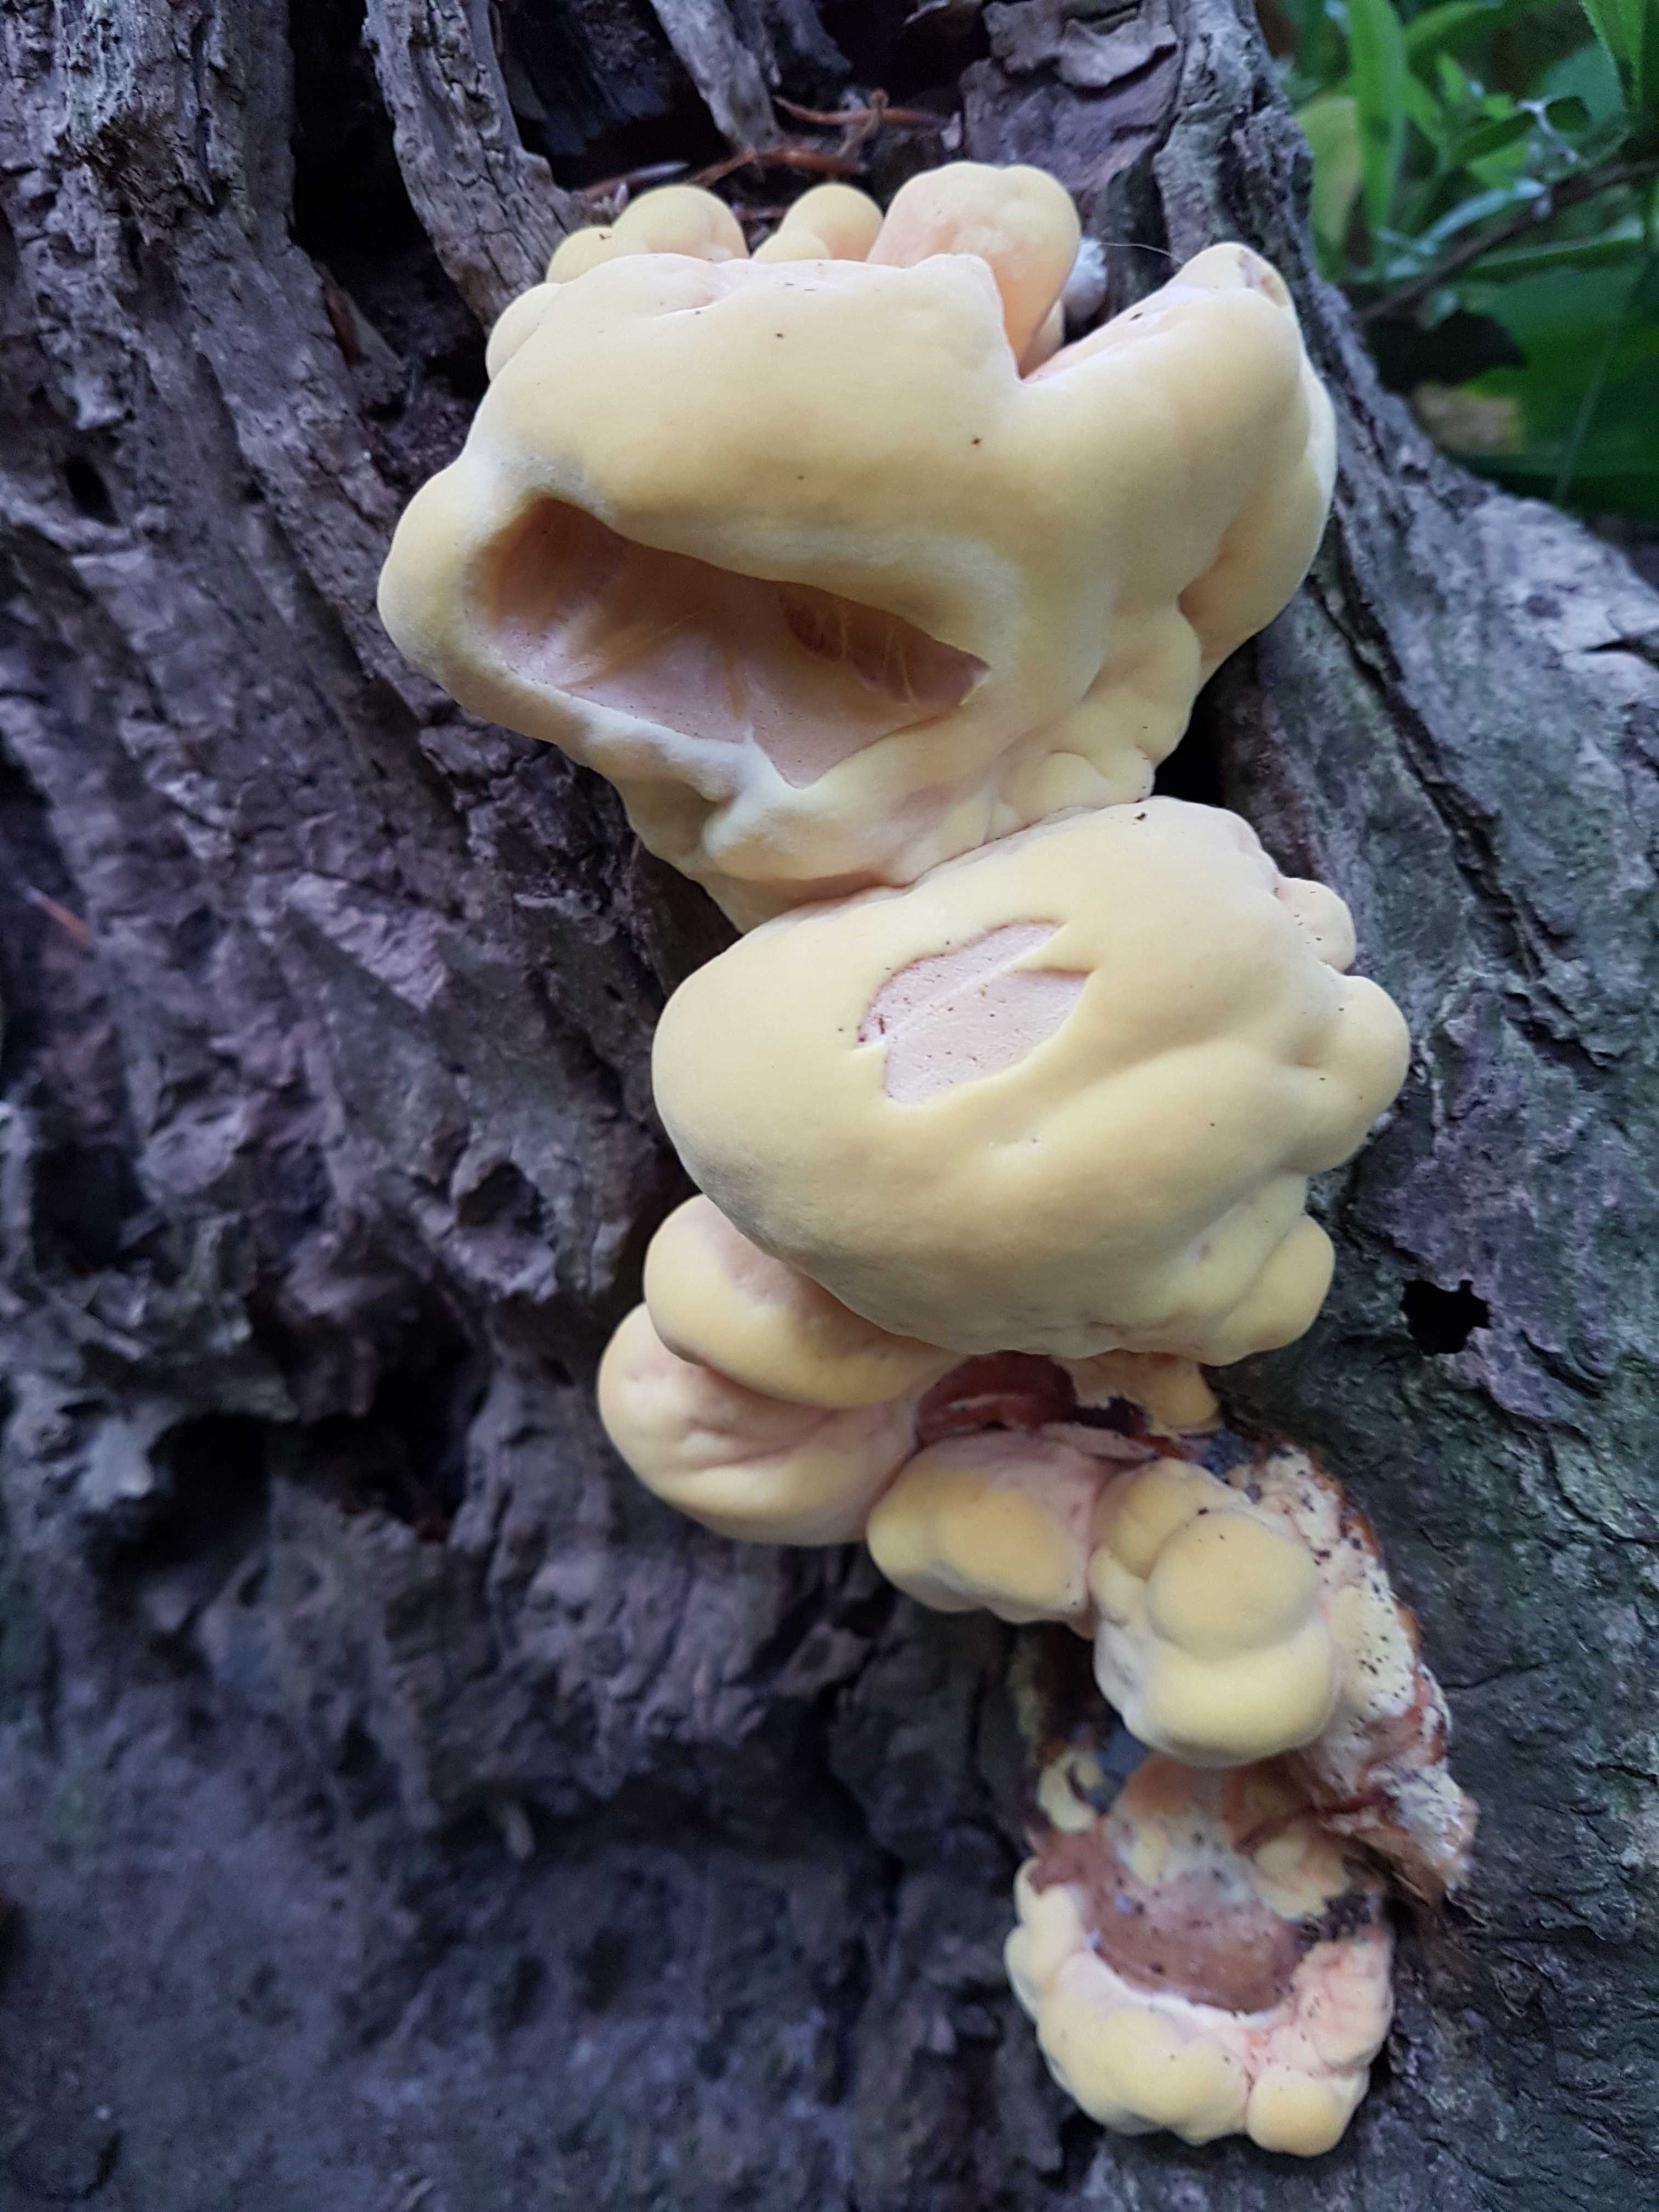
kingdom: Fungi
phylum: Basidiomycota
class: Agaricomycetes
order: Polyporales
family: Laetiporaceae
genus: Laetiporus
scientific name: Laetiporus sulphureus
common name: svovlporesvamp
